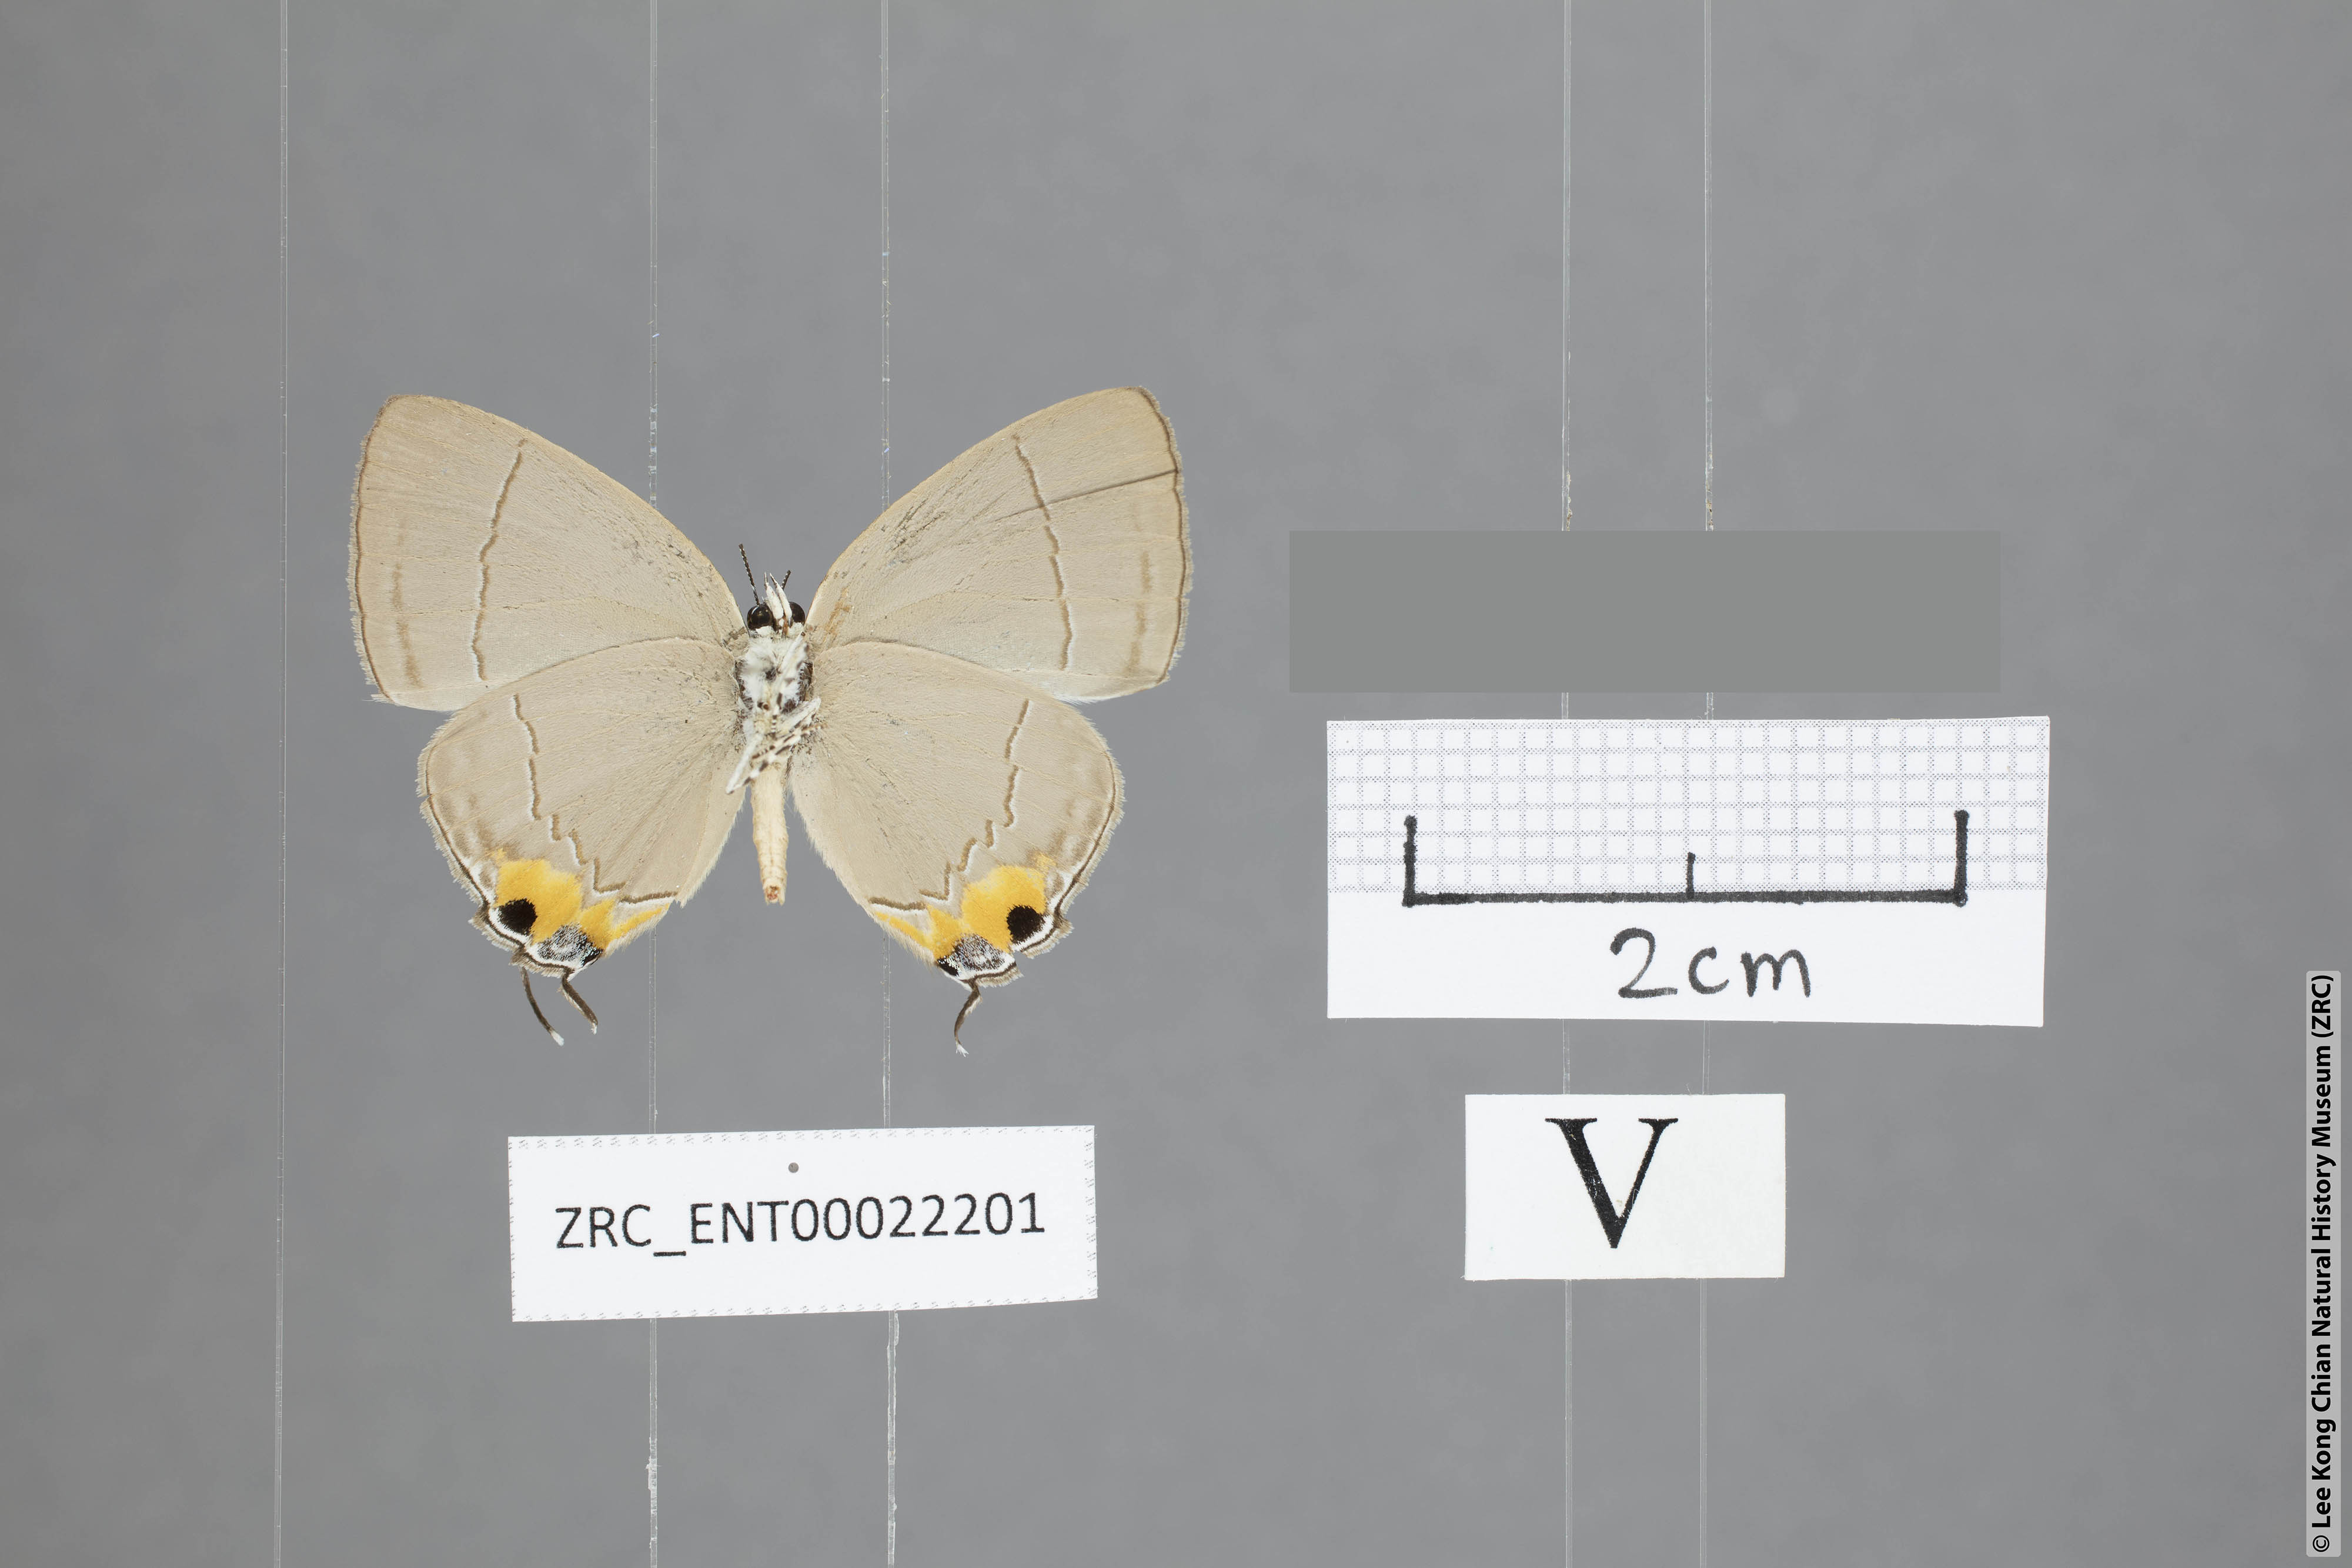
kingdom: Animalia
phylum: Arthropoda
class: Insecta
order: Lepidoptera
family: Lycaenidae
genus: Tajuria
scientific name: Tajuria isaeus
